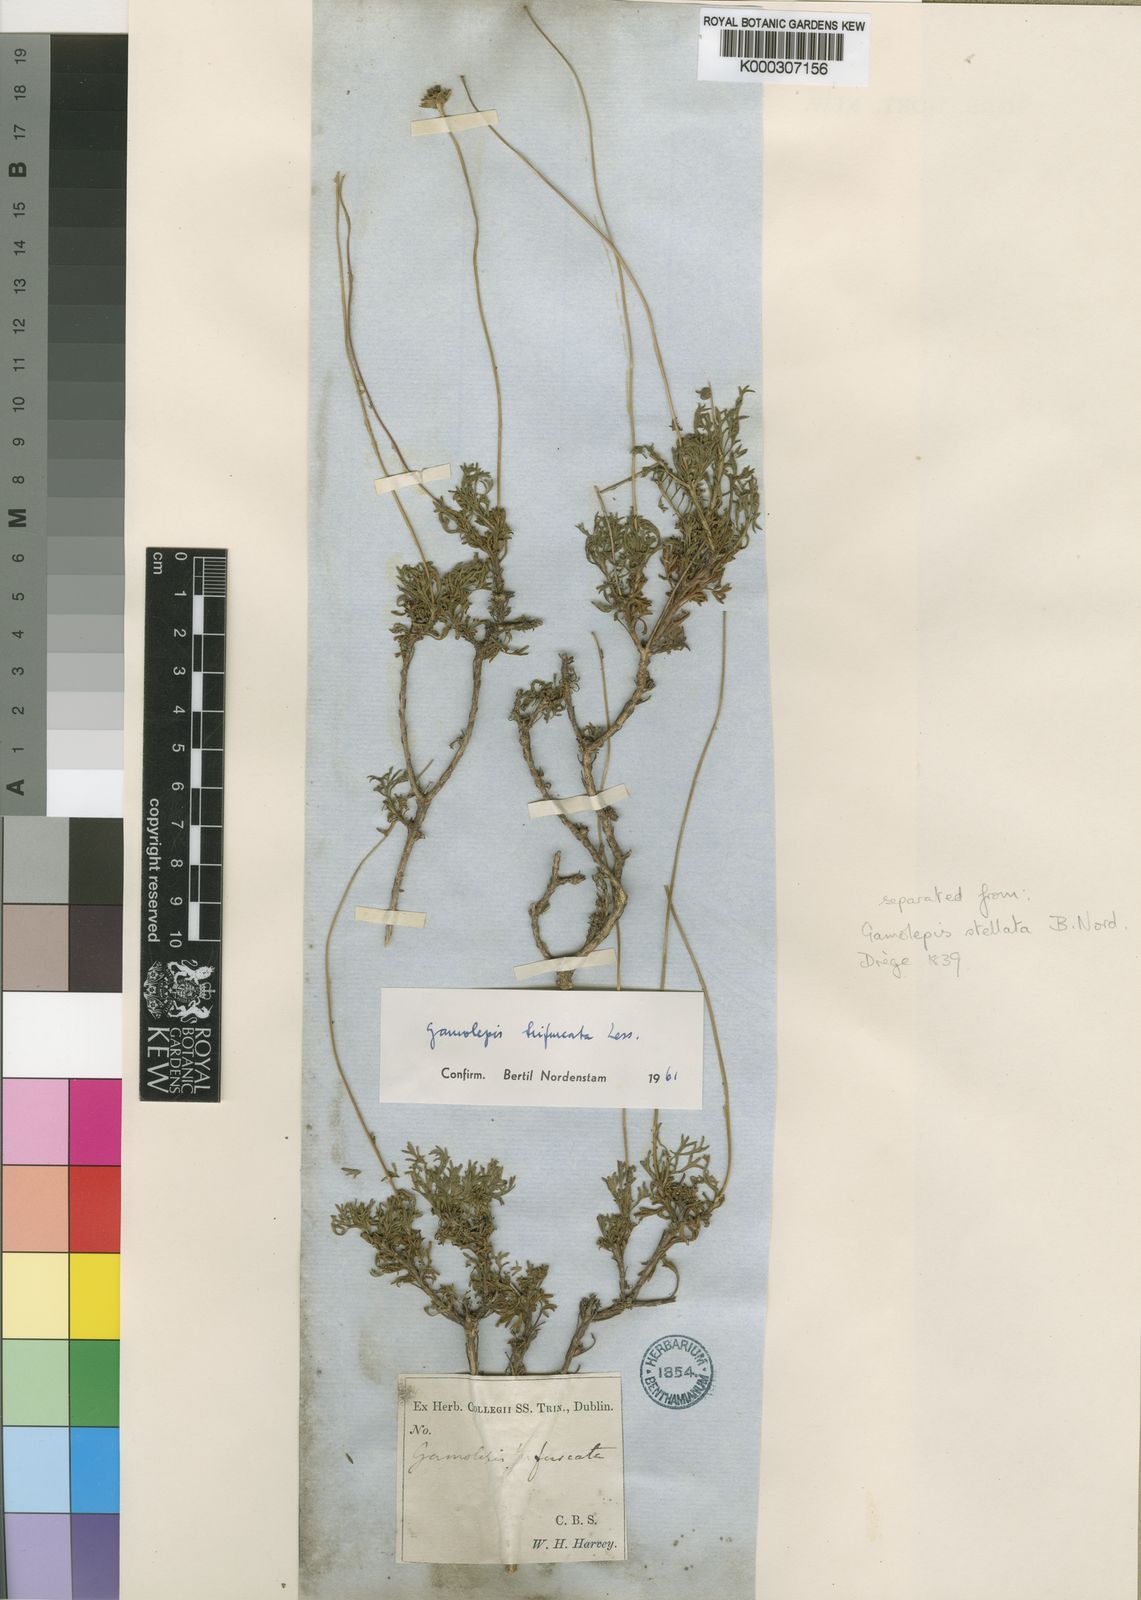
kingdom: Plantae
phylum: Tracheophyta
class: Magnoliopsida
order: Asterales
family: Asteraceae
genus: Euryops
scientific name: Euryops anthemoides
